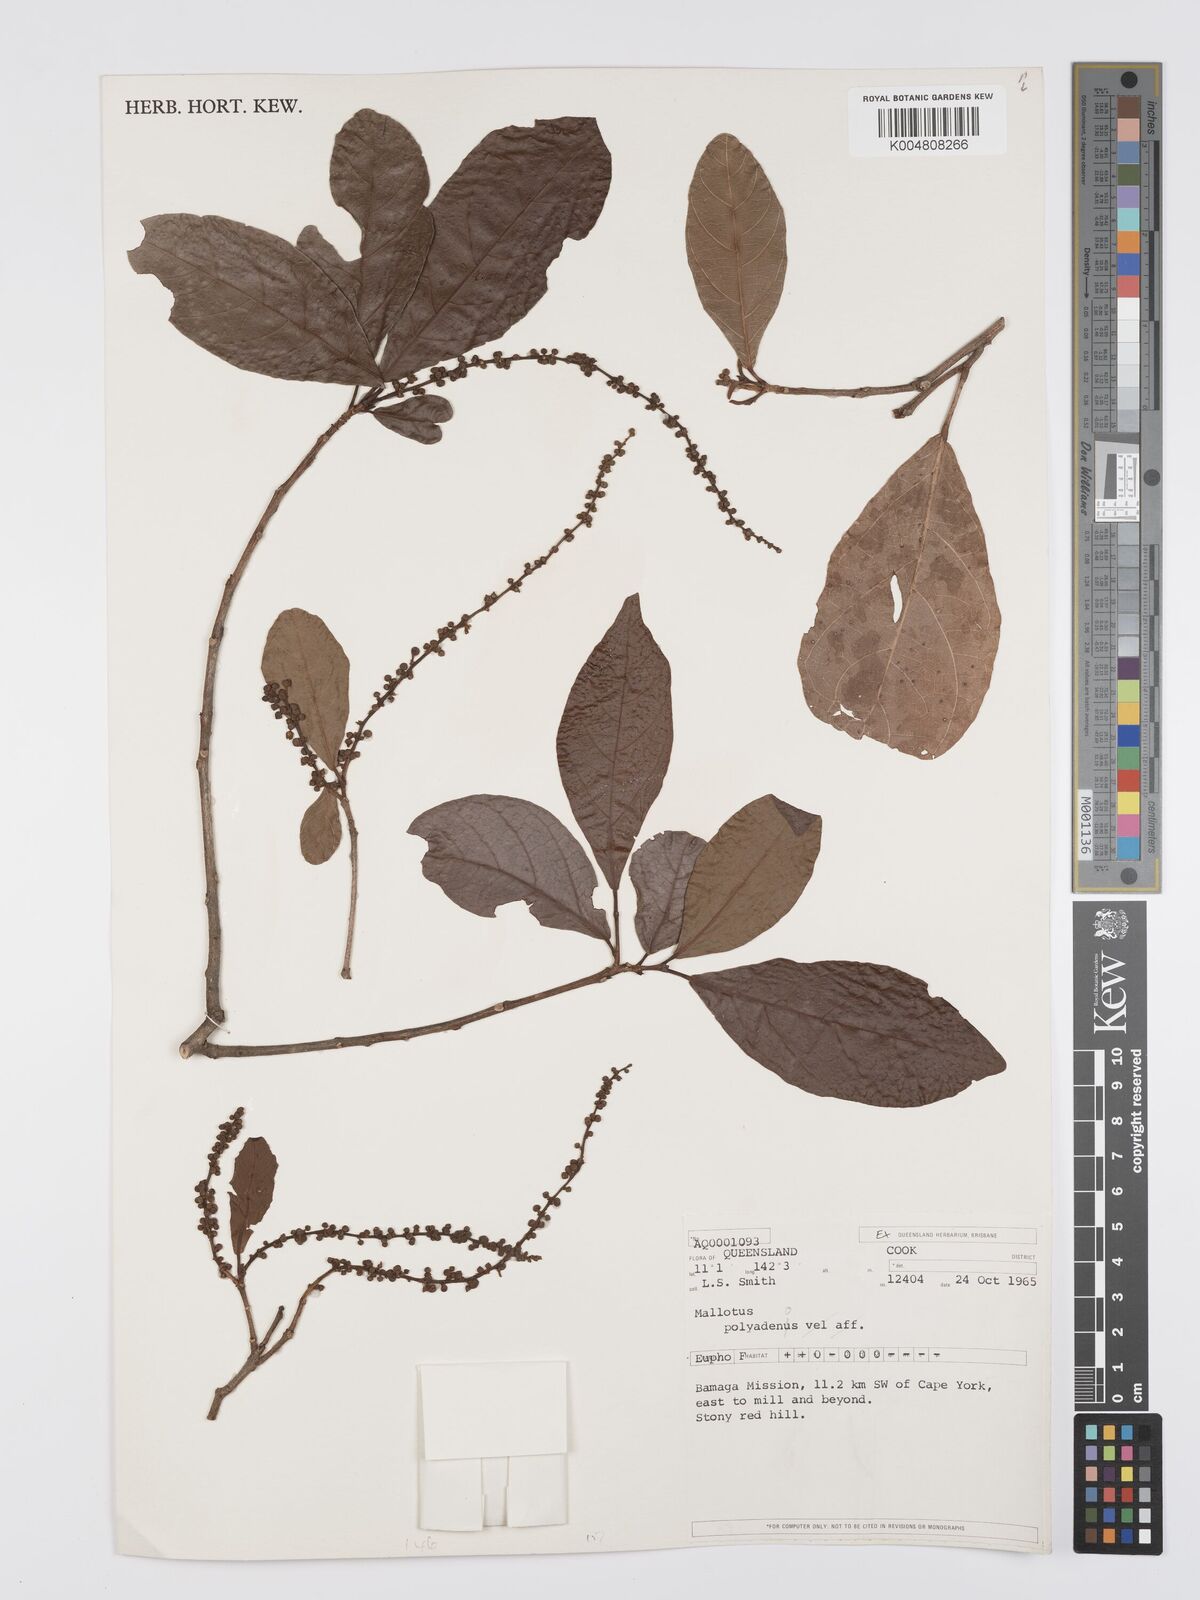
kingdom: Plantae
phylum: Tracheophyta
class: Magnoliopsida
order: Malpighiales
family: Euphorbiaceae
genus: Mallotus
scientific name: Mallotus polyadenos
